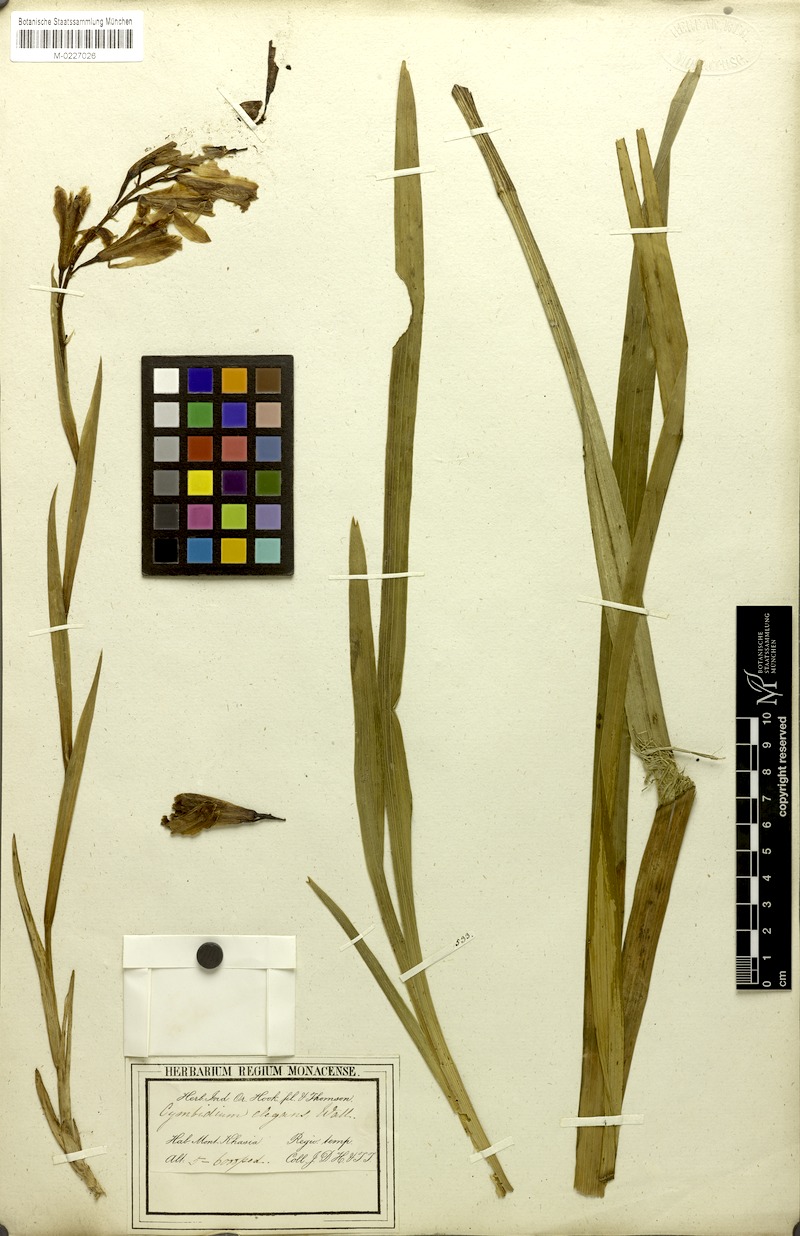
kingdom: Plantae
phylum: Tracheophyta
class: Liliopsida
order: Asparagales
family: Orchidaceae
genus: Cymbidium
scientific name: Cymbidium elegans
